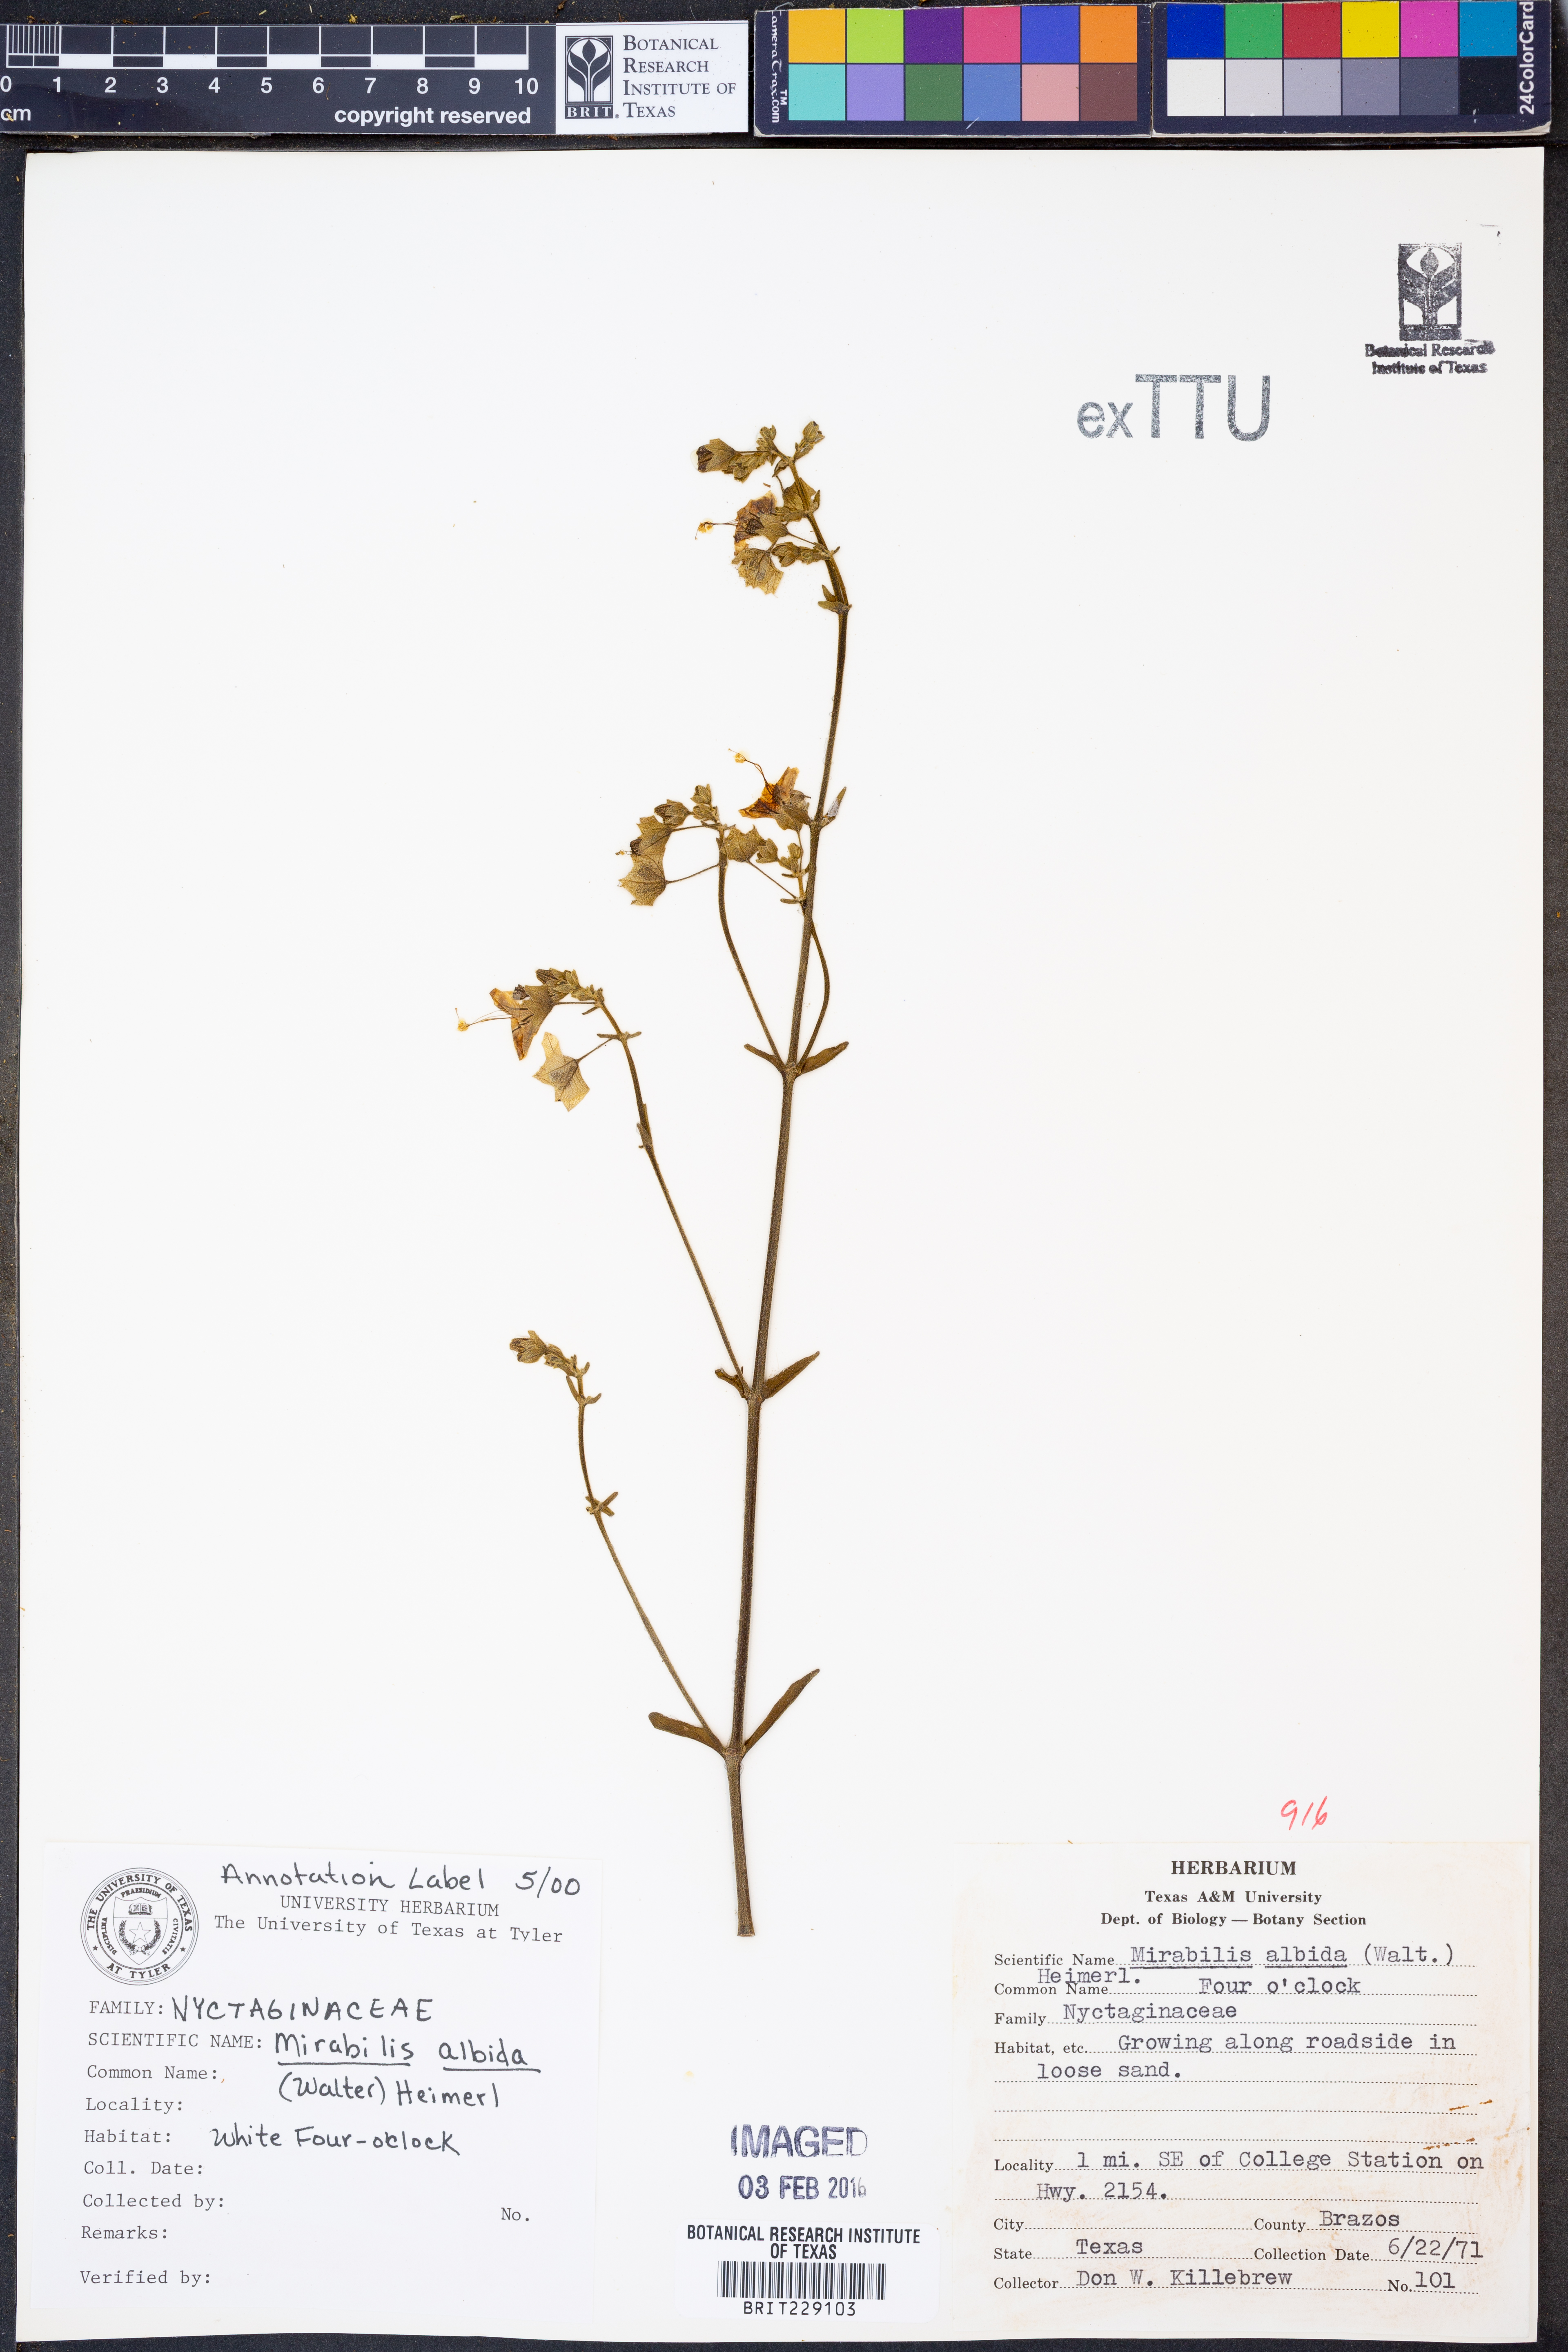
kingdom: Plantae
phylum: Tracheophyta
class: Magnoliopsida
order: Caryophyllales
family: Nyctaginaceae
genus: Mirabilis
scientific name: Mirabilis albida
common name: Hairy four-o'clock
